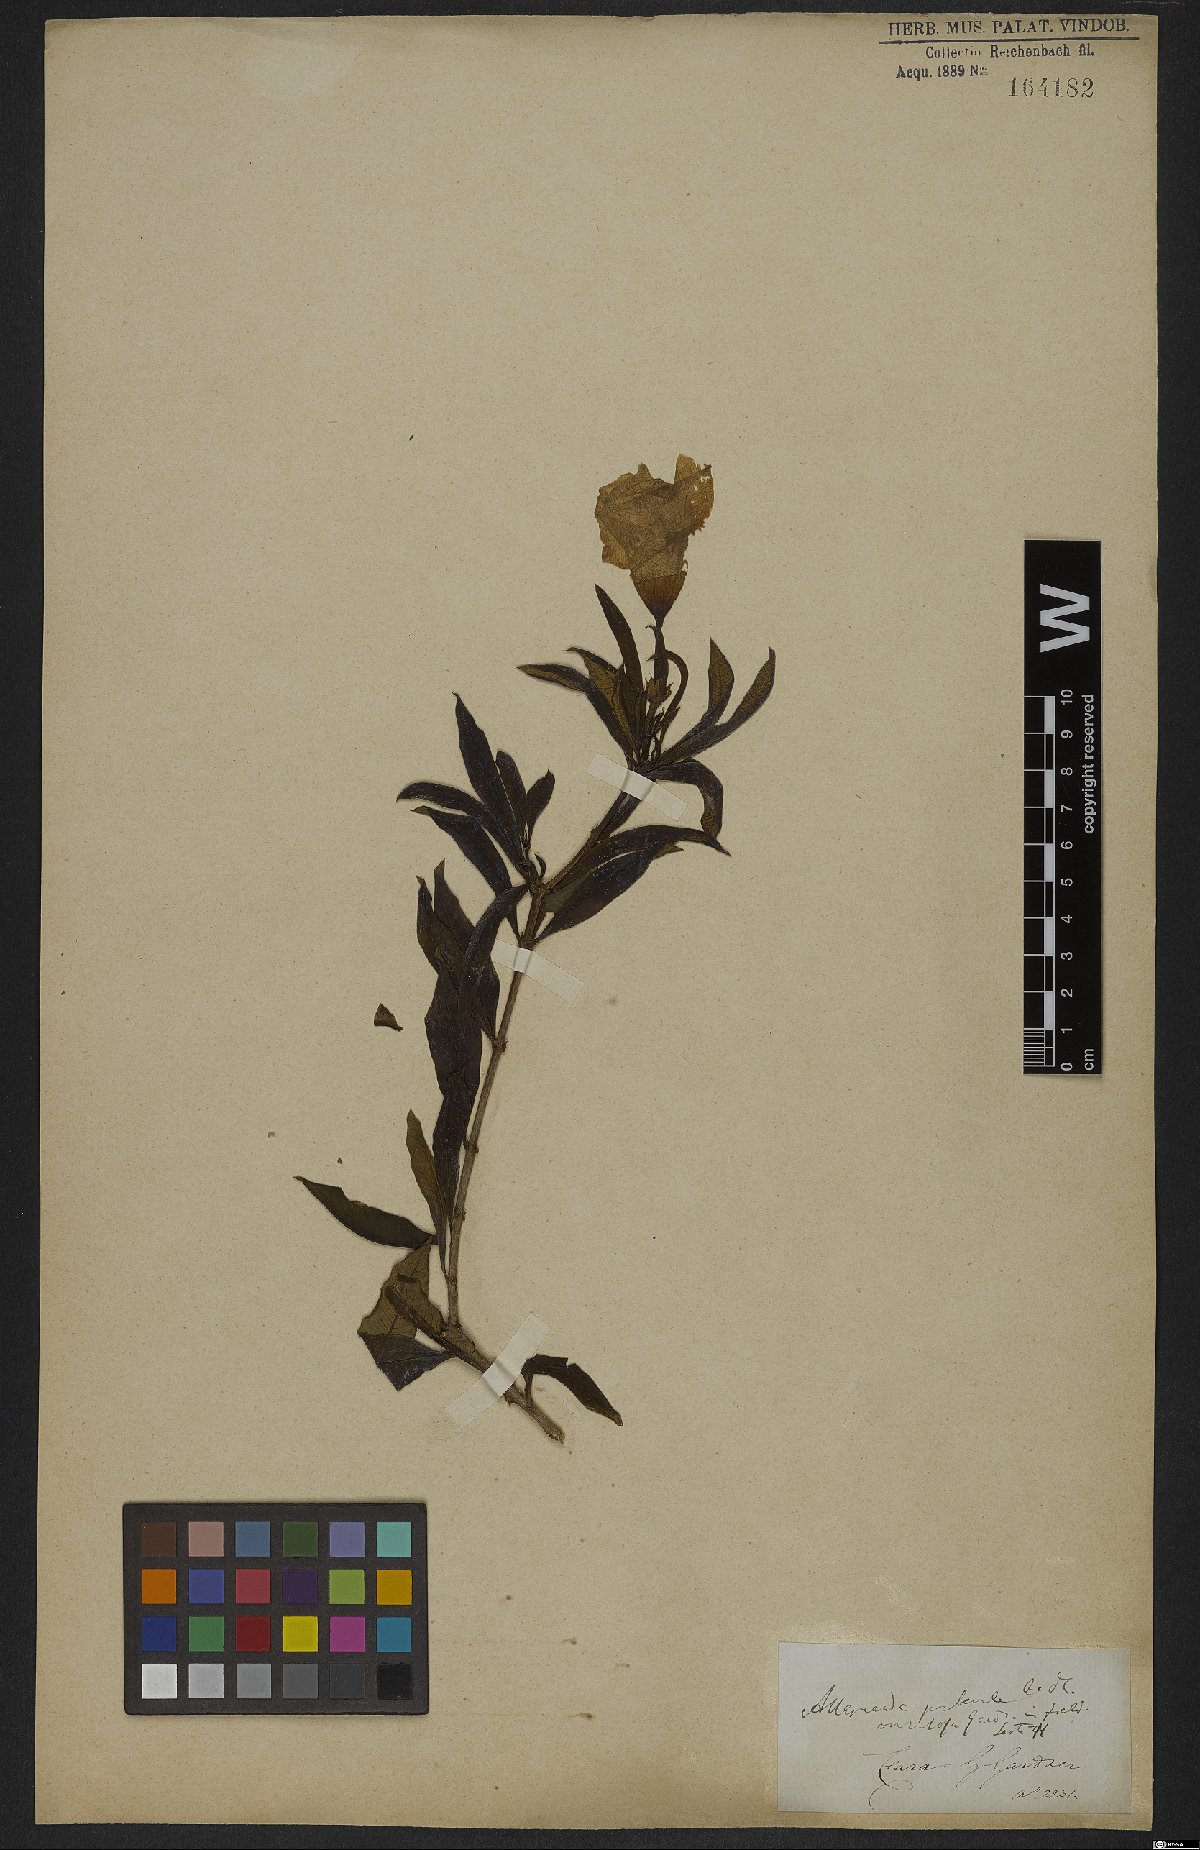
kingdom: Plantae
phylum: Tracheophyta
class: Magnoliopsida
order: Gentianales
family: Apocynaceae
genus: Allamanda
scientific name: Allamanda puberula
